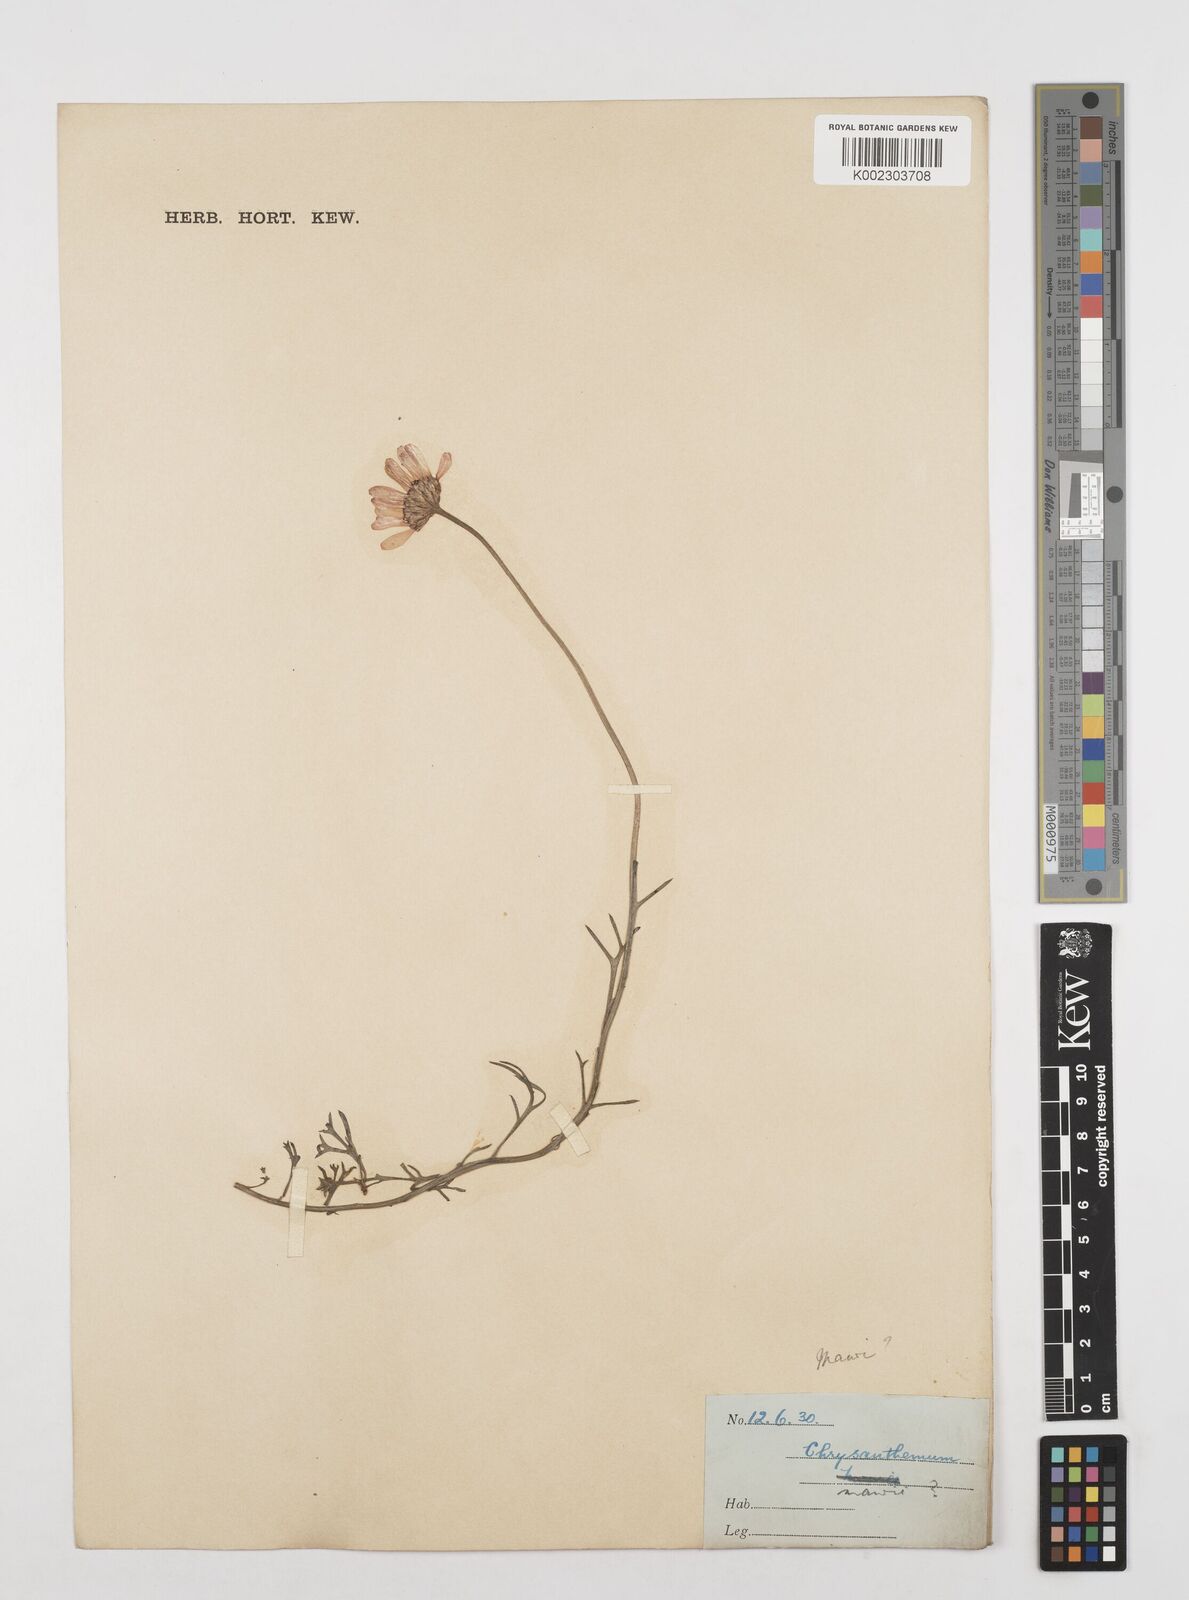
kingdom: Plantae
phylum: Tracheophyta
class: Magnoliopsida
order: Asterales
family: Asteraceae
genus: Tanacetum
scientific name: Tanacetum
